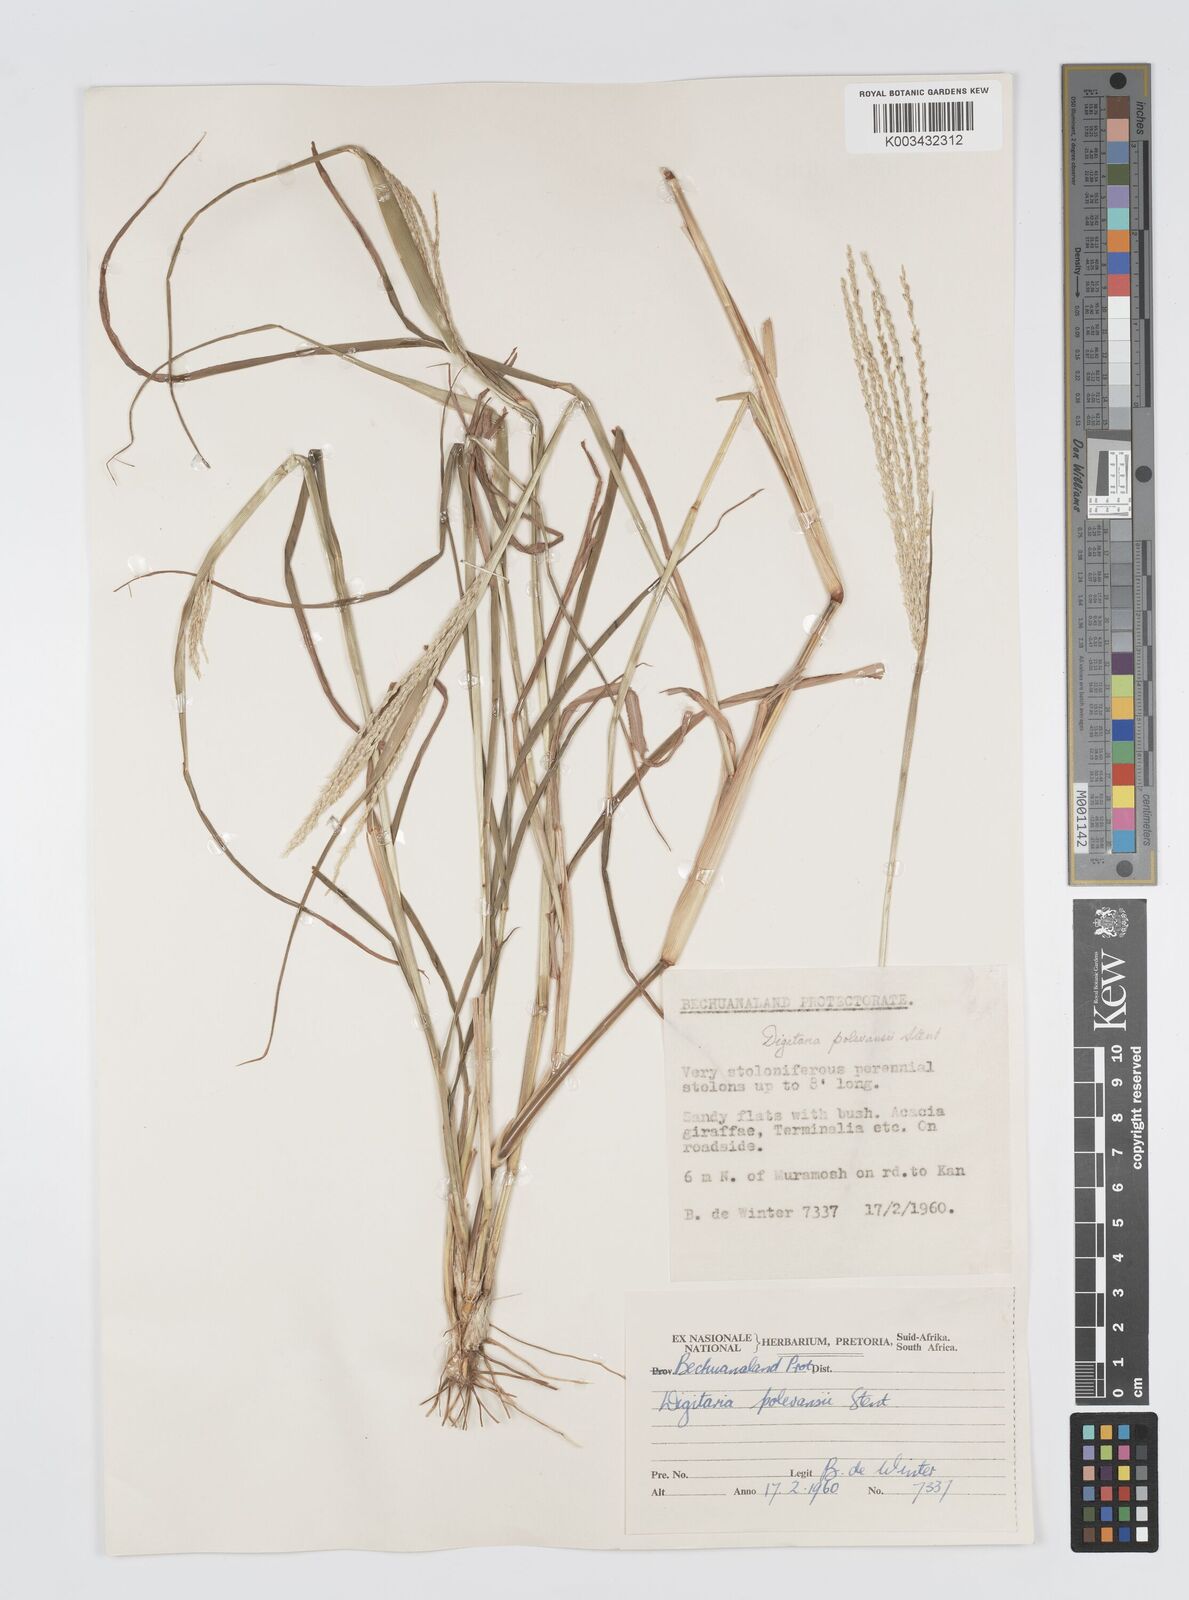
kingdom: Plantae
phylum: Tracheophyta
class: Liliopsida
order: Poales
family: Poaceae
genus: Digitaria
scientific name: Digitaria milanjiana
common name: Madagascar crabgrass
